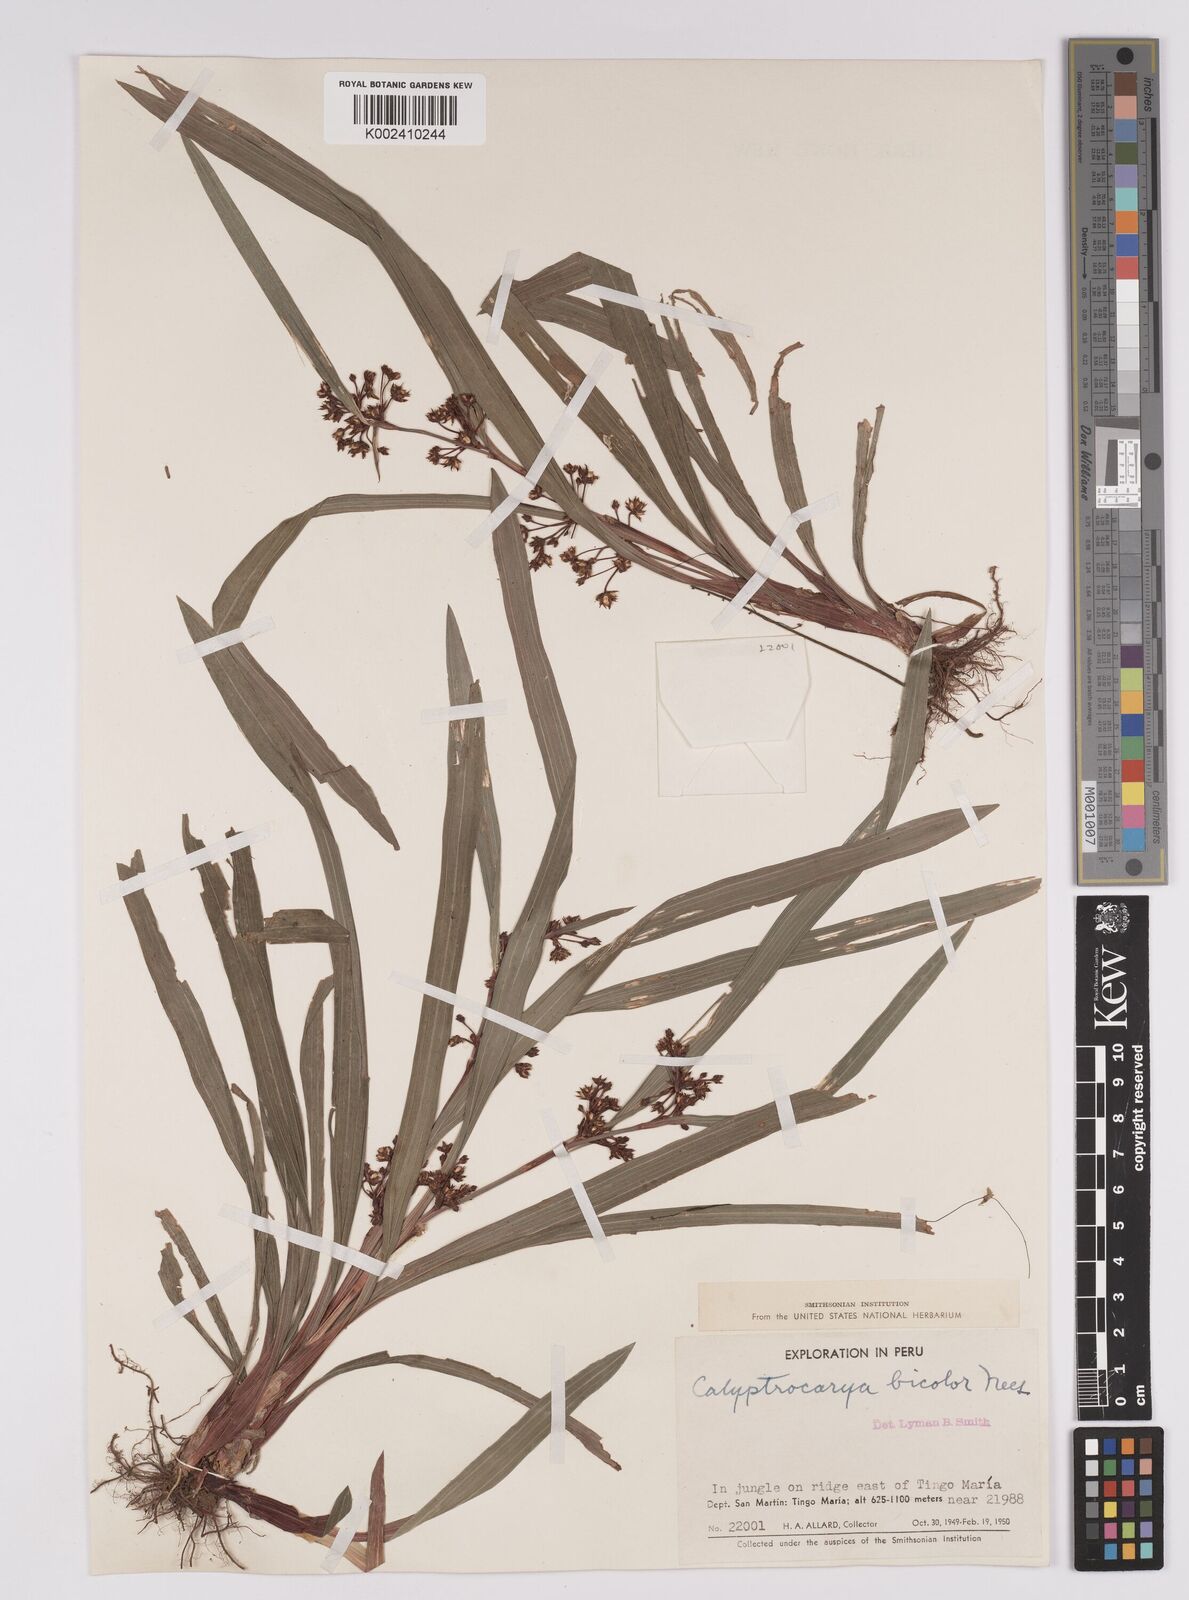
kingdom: Plantae
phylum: Tracheophyta
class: Liliopsida
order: Poales
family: Cyperaceae
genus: Calyptrocarya
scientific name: Calyptrocarya bicolor
